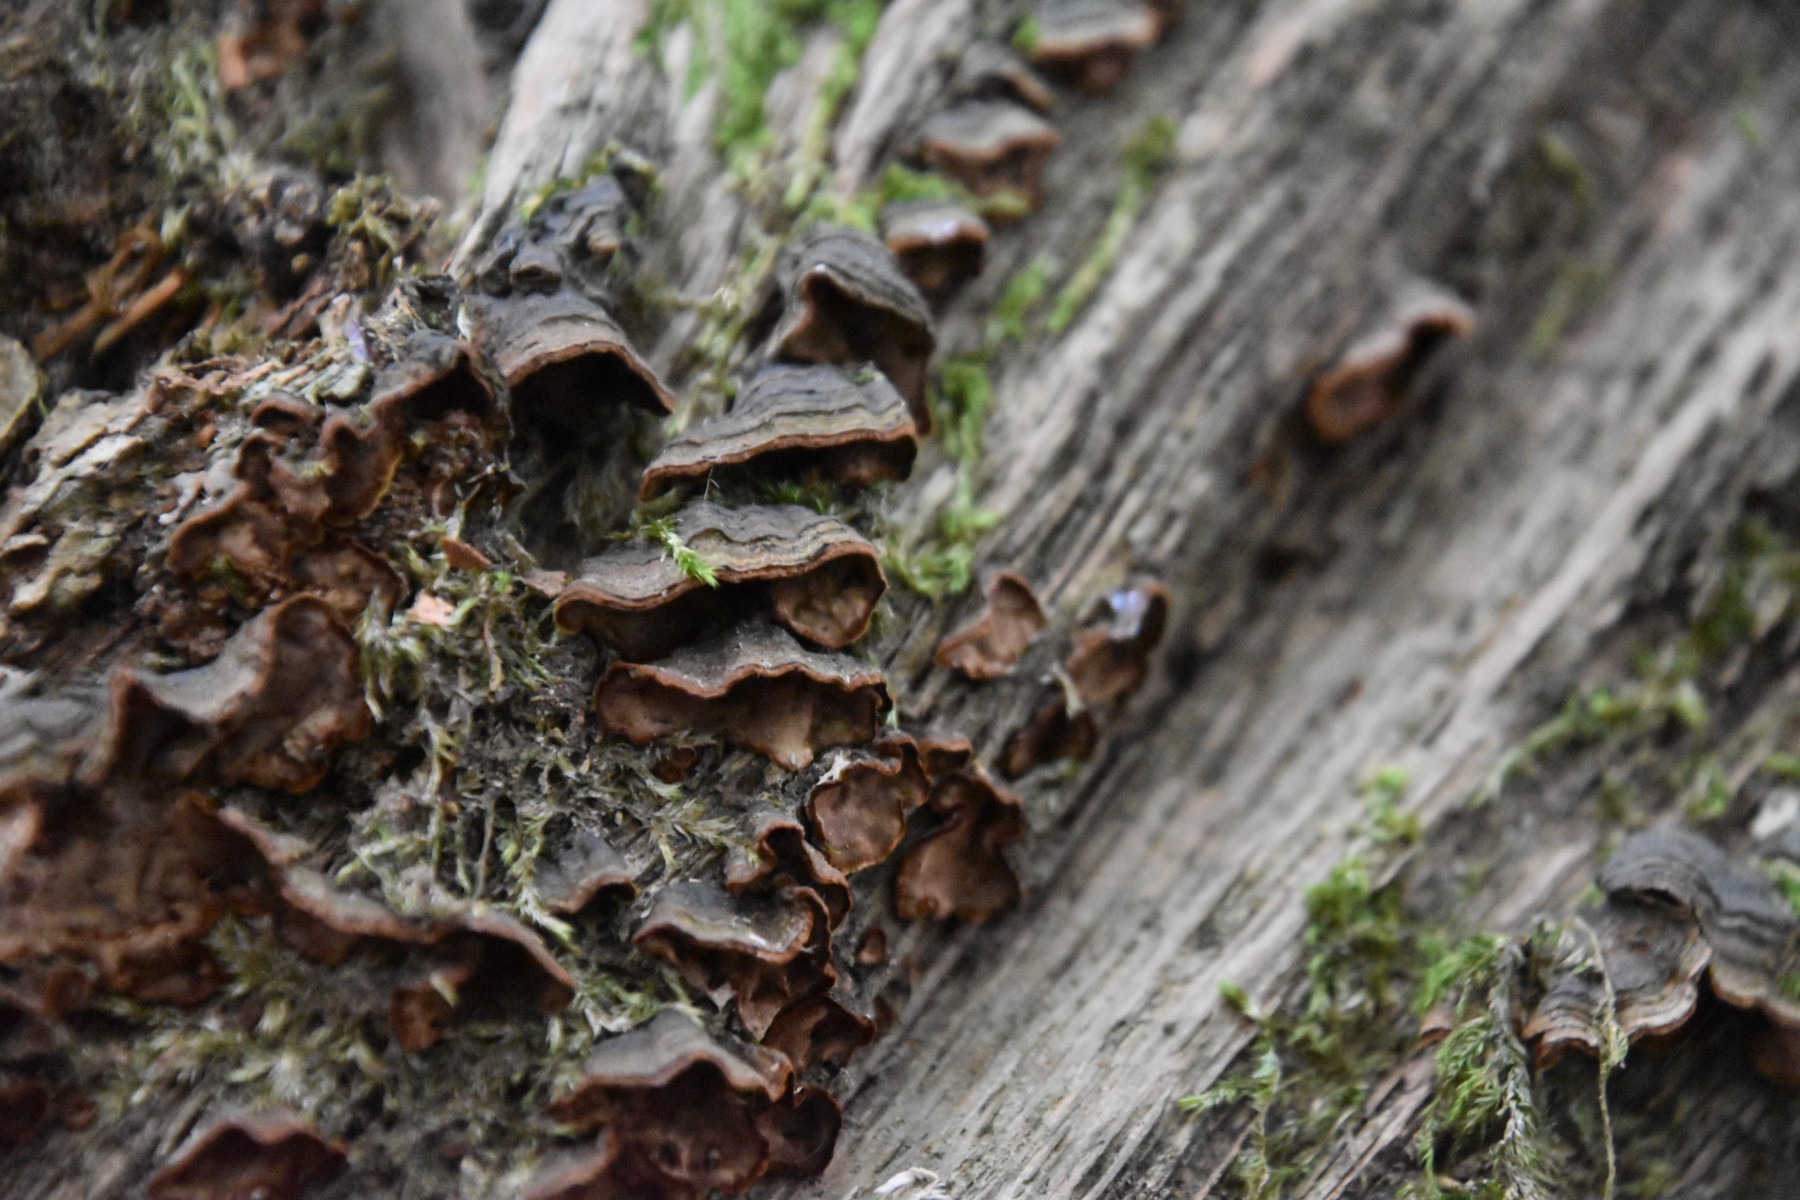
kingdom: Fungi
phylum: Basidiomycota
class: Agaricomycetes
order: Hymenochaetales
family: Hymenochaetaceae
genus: Hymenochaete
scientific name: Hymenochaete rubiginosa
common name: stiv ruslædersvamp
